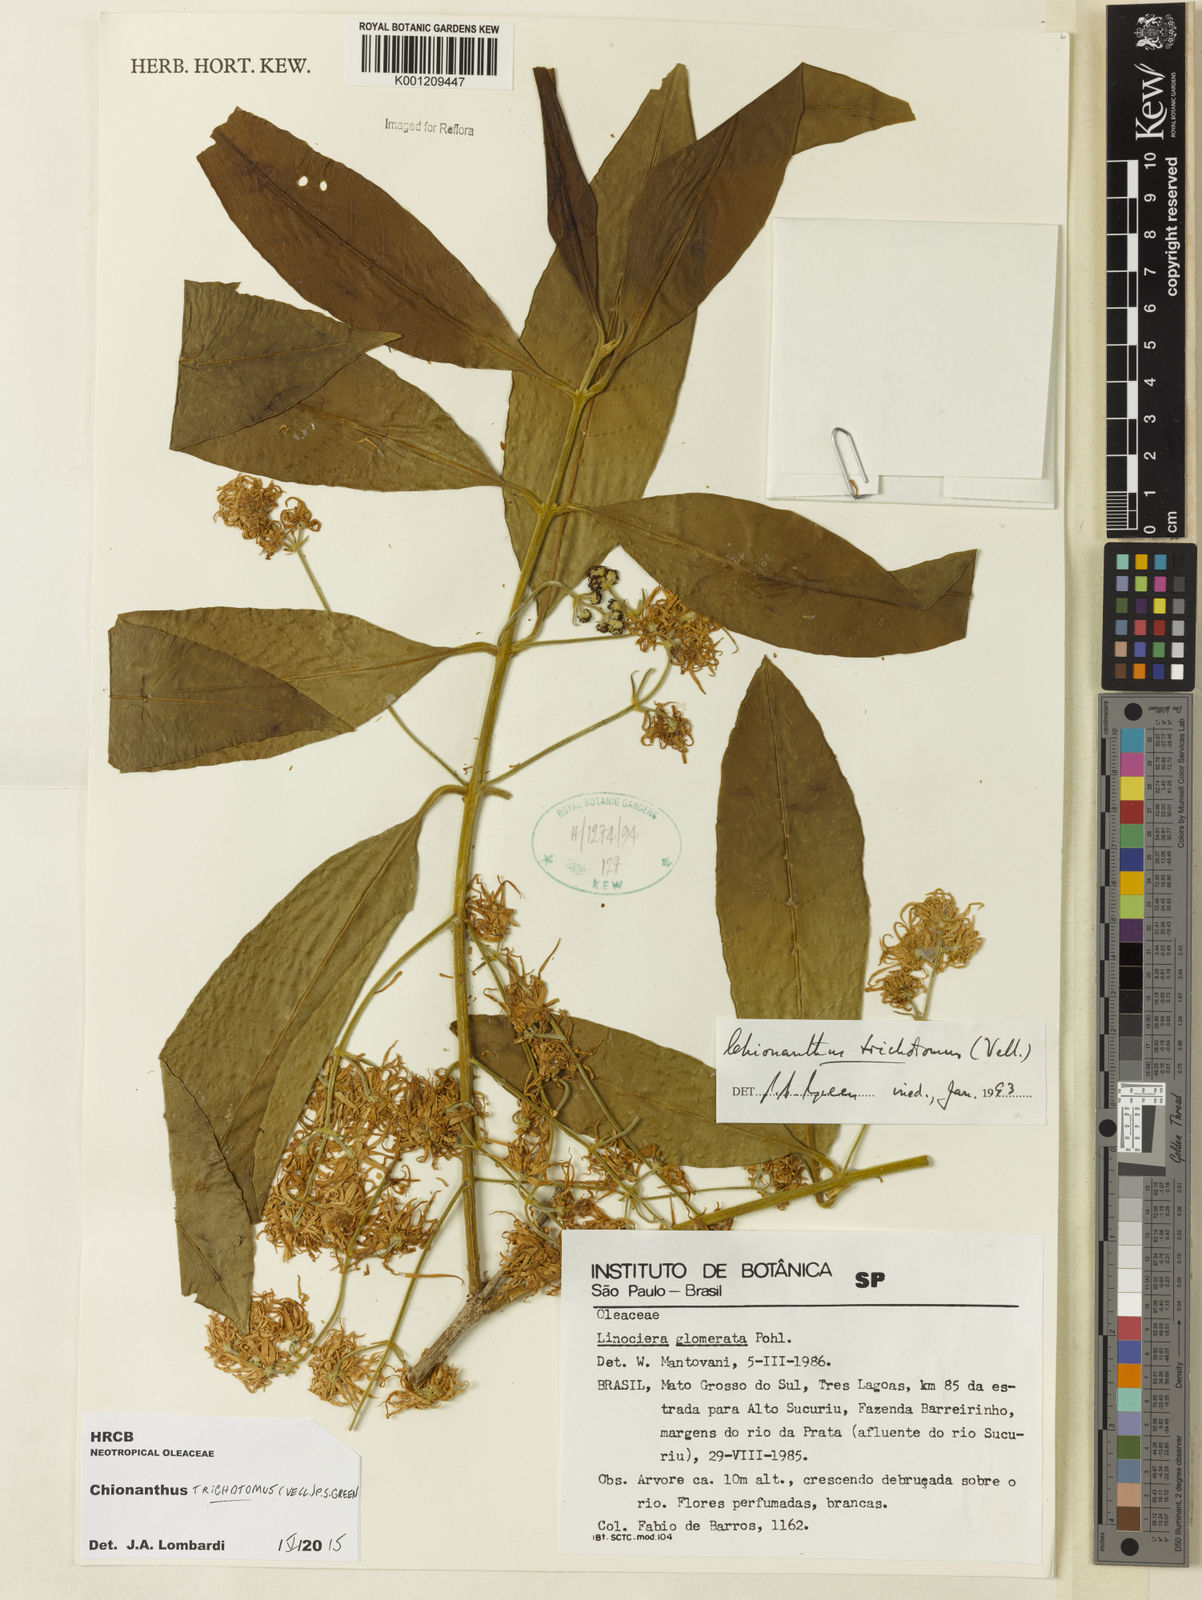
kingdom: Plantae
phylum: Tracheophyta
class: Magnoliopsida
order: Lamiales
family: Oleaceae
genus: Chionanthus
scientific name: Chionanthus trichotomus
